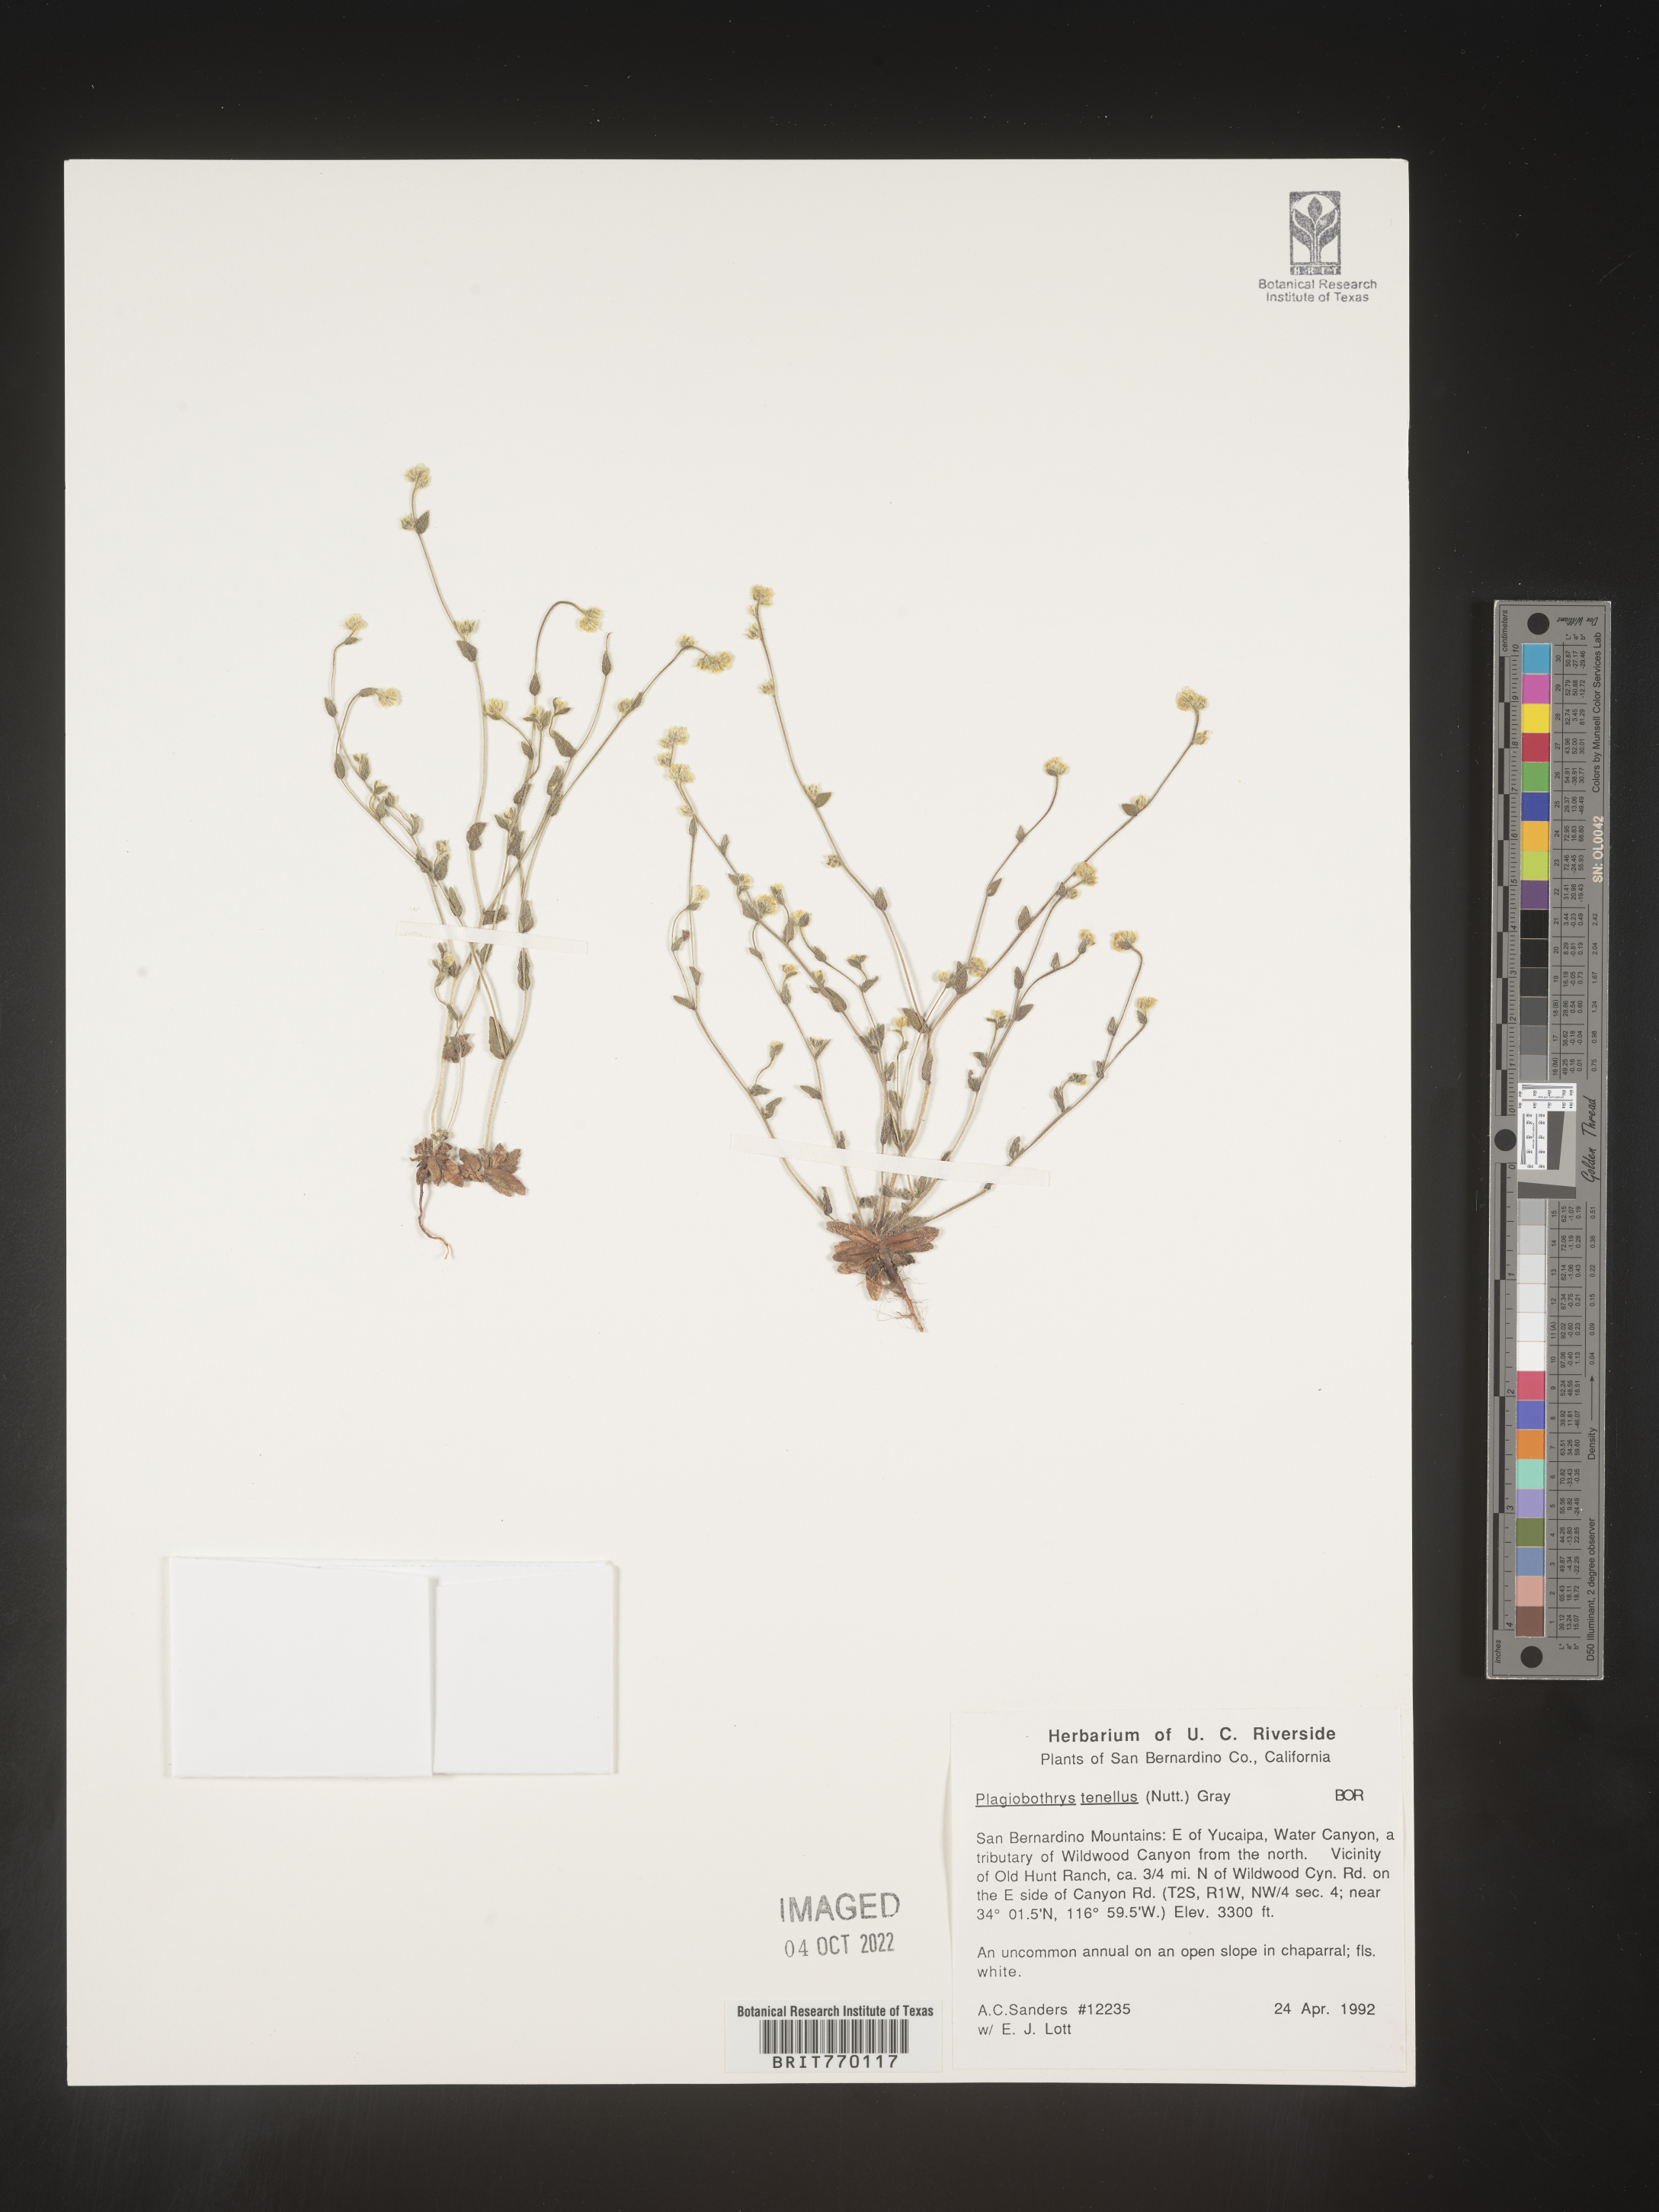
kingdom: Plantae
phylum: Tracheophyta
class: Magnoliopsida
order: Boraginales
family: Boraginaceae
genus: Plagiobothrys
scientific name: Plagiobothrys
